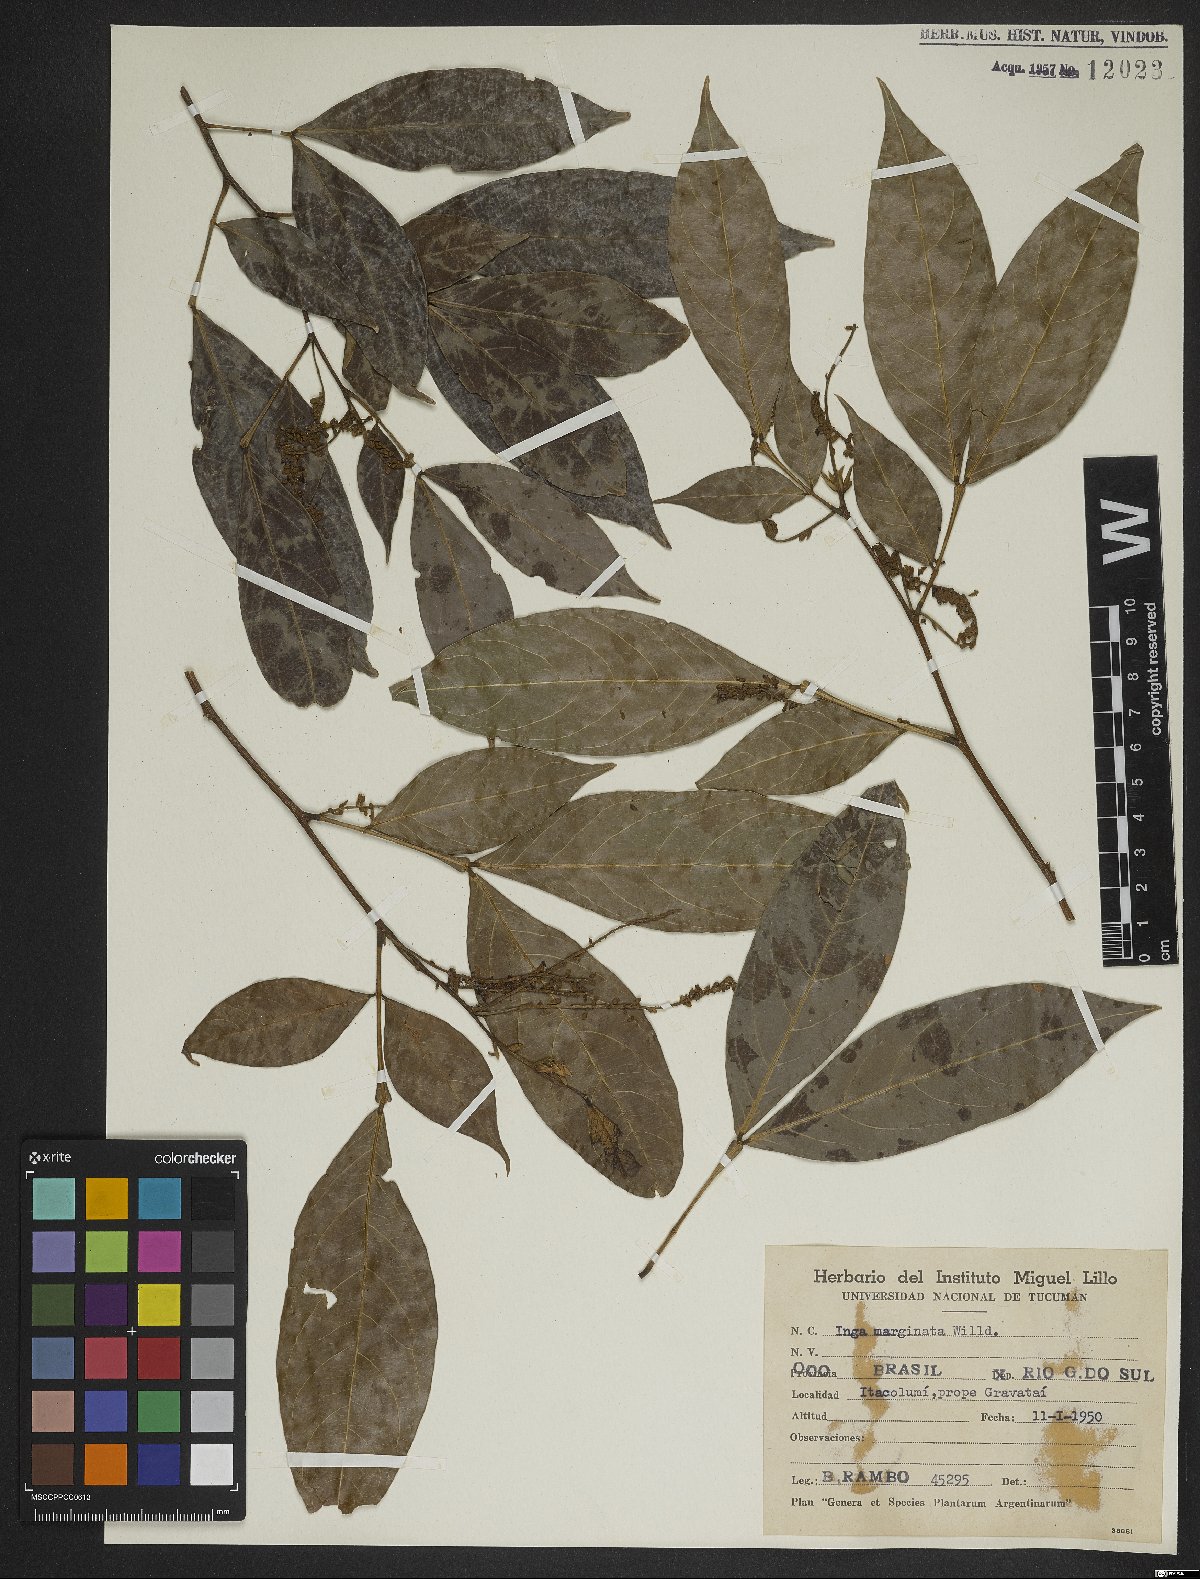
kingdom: Plantae
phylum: Tracheophyta
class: Magnoliopsida
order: Fabales
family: Fabaceae
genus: Inga
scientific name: Inga marginata
